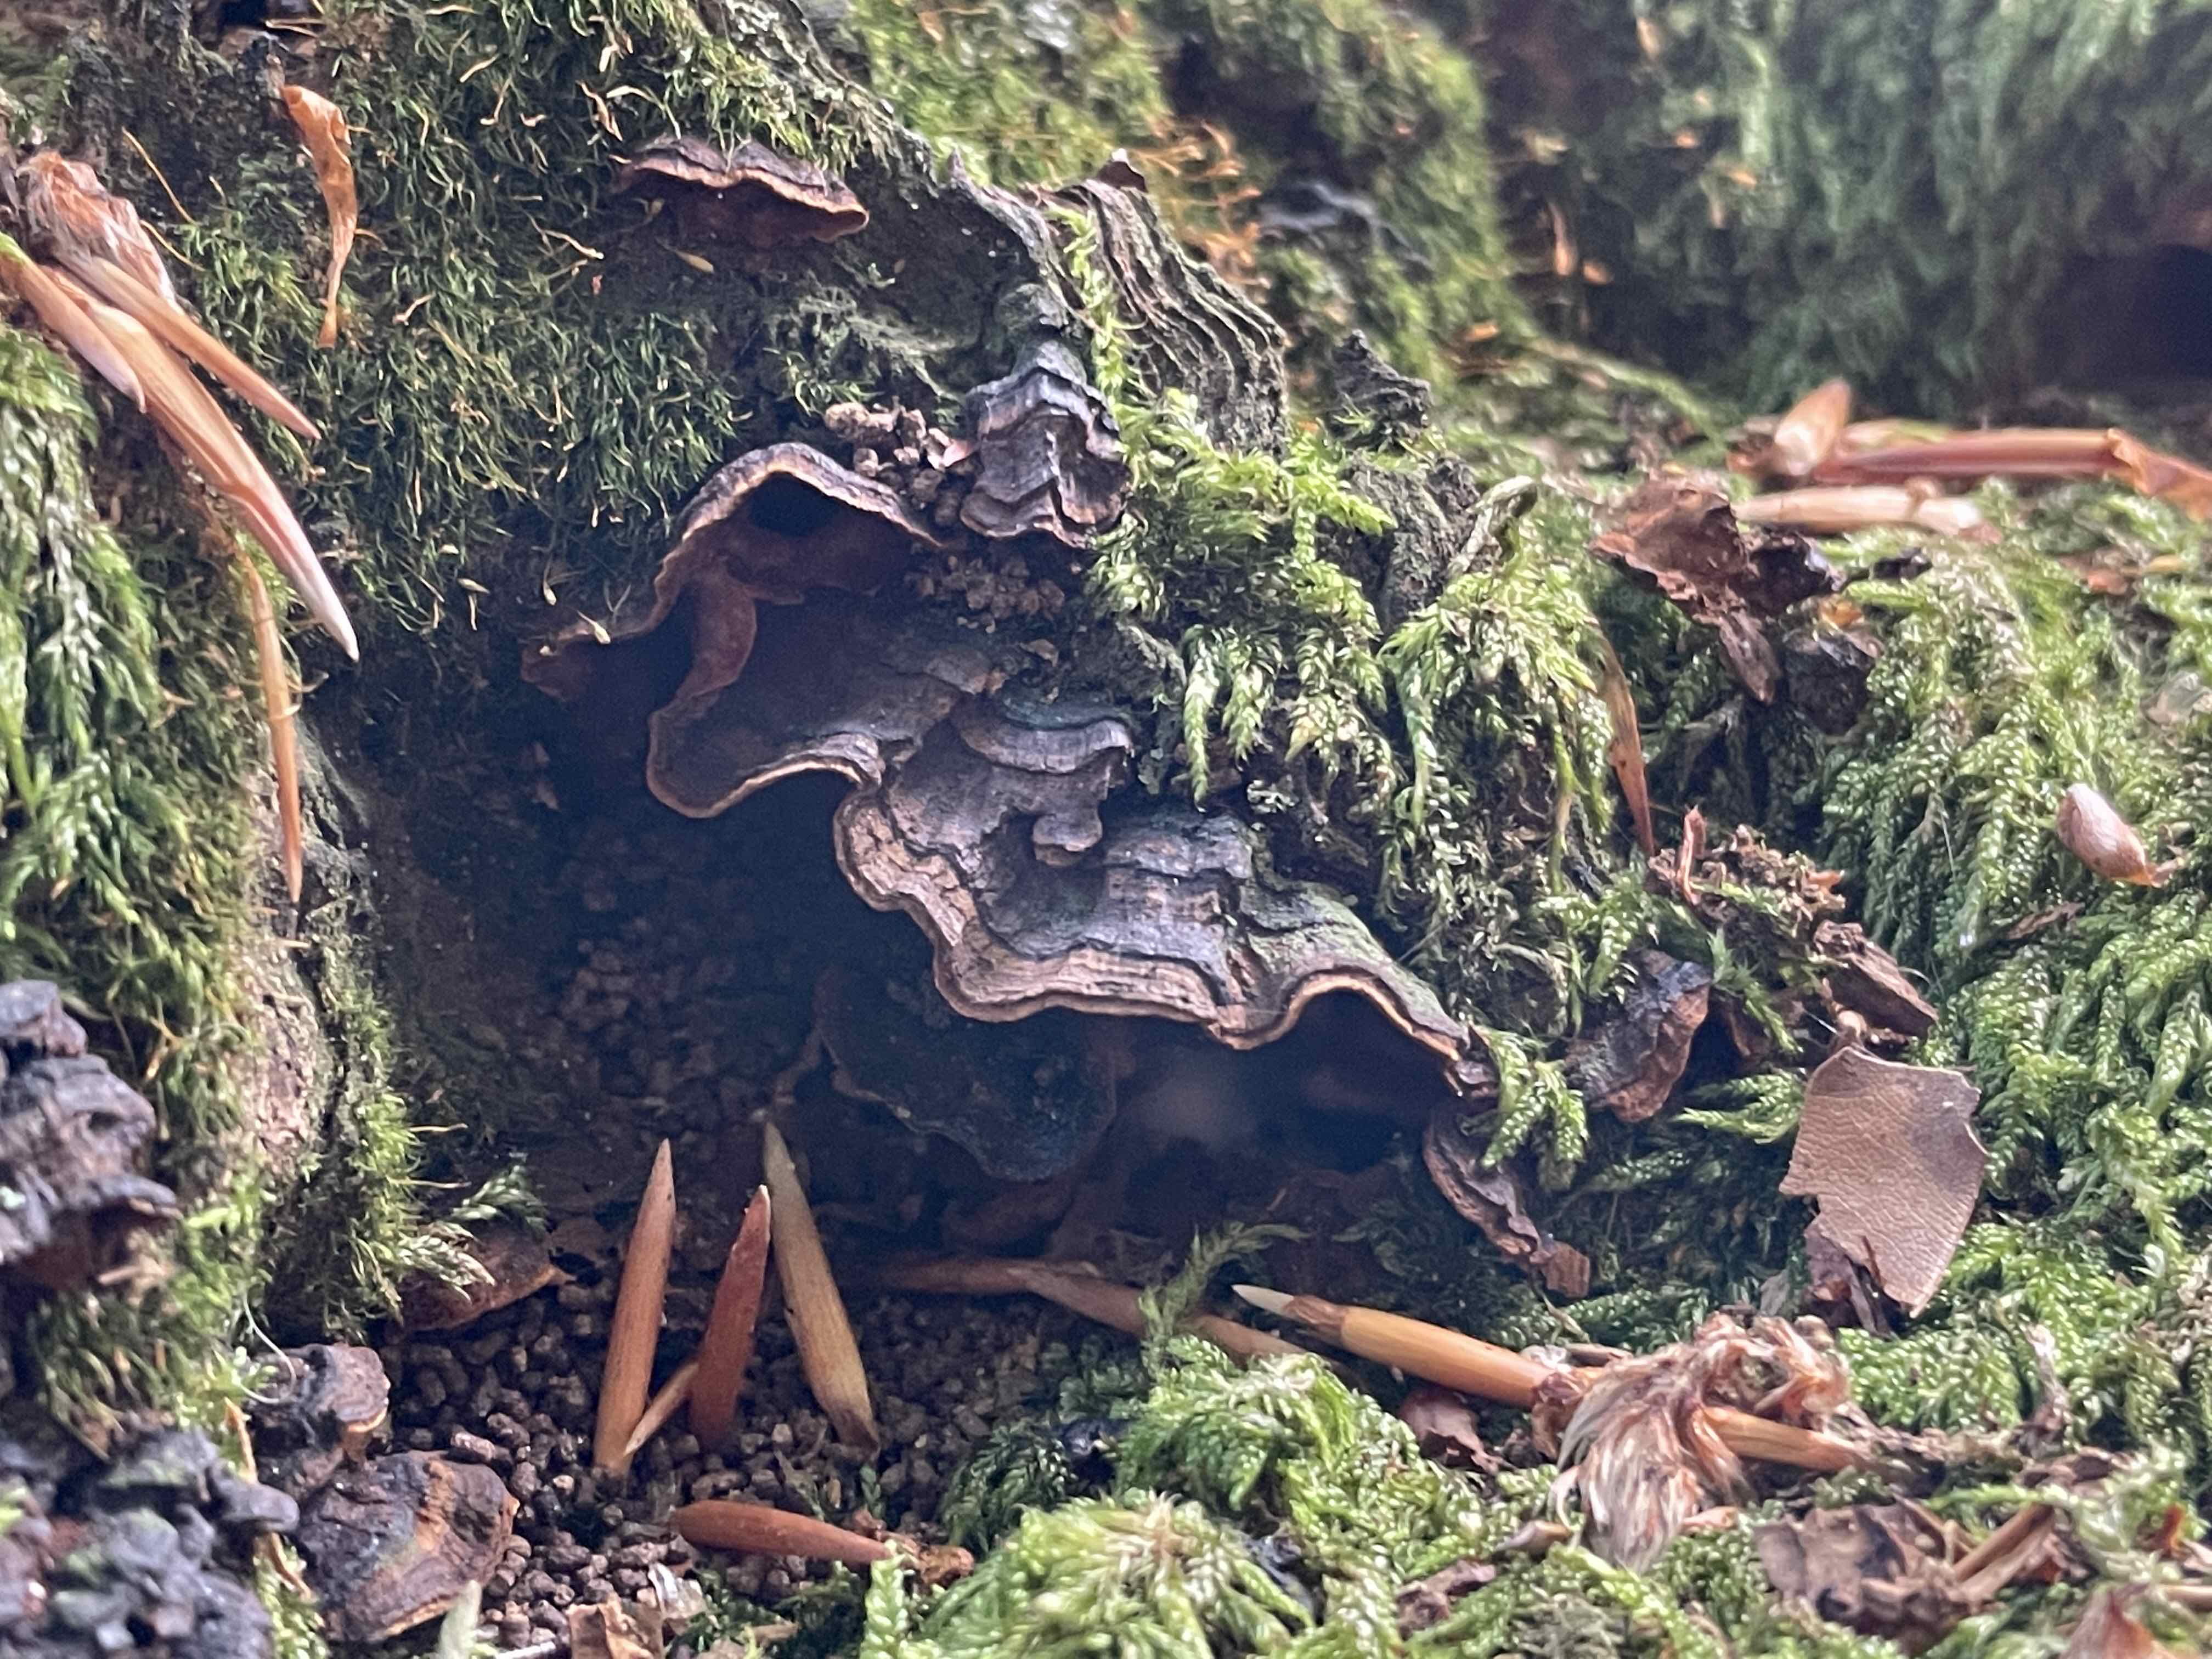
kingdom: Fungi
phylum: Basidiomycota
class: Agaricomycetes
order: Hymenochaetales
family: Hymenochaetaceae
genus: Hymenochaete
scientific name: Hymenochaete rubiginosa
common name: stiv ruslædersvamp
